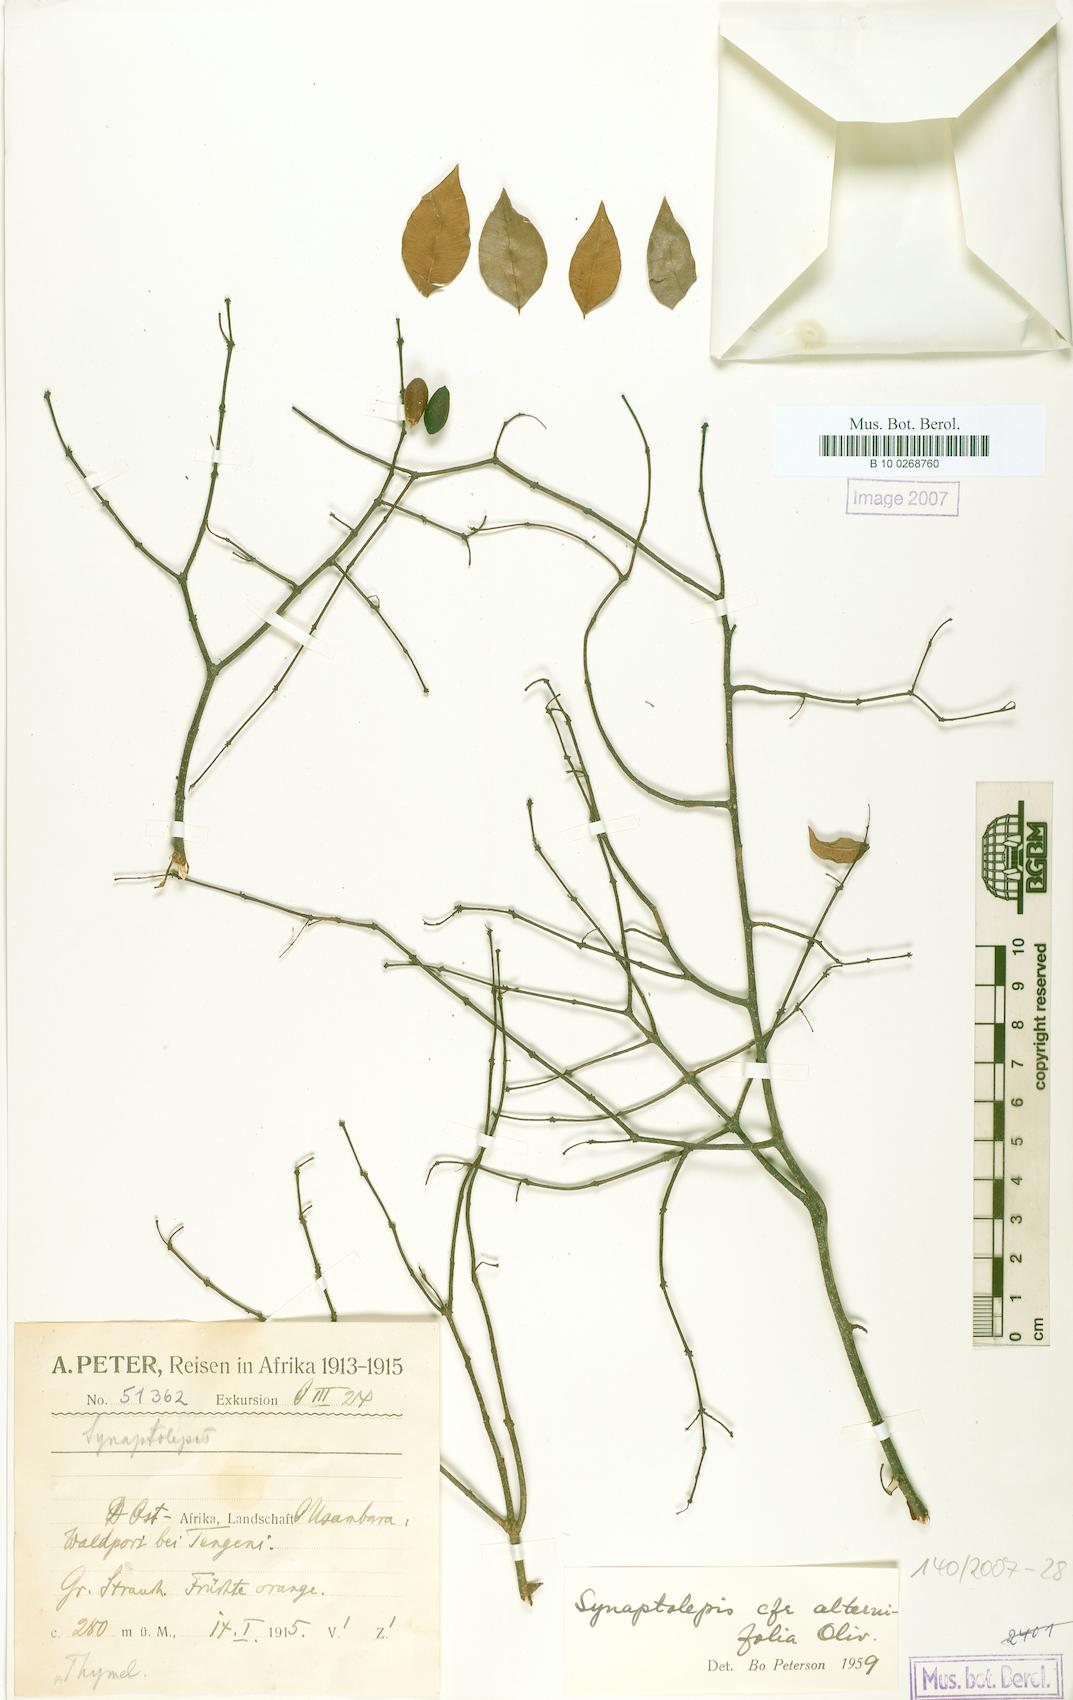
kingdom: Plantae
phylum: Tracheophyta
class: Magnoliopsida
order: Malvales
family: Thymelaeaceae
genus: Synaptolepis
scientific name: Synaptolepis alternifolia
